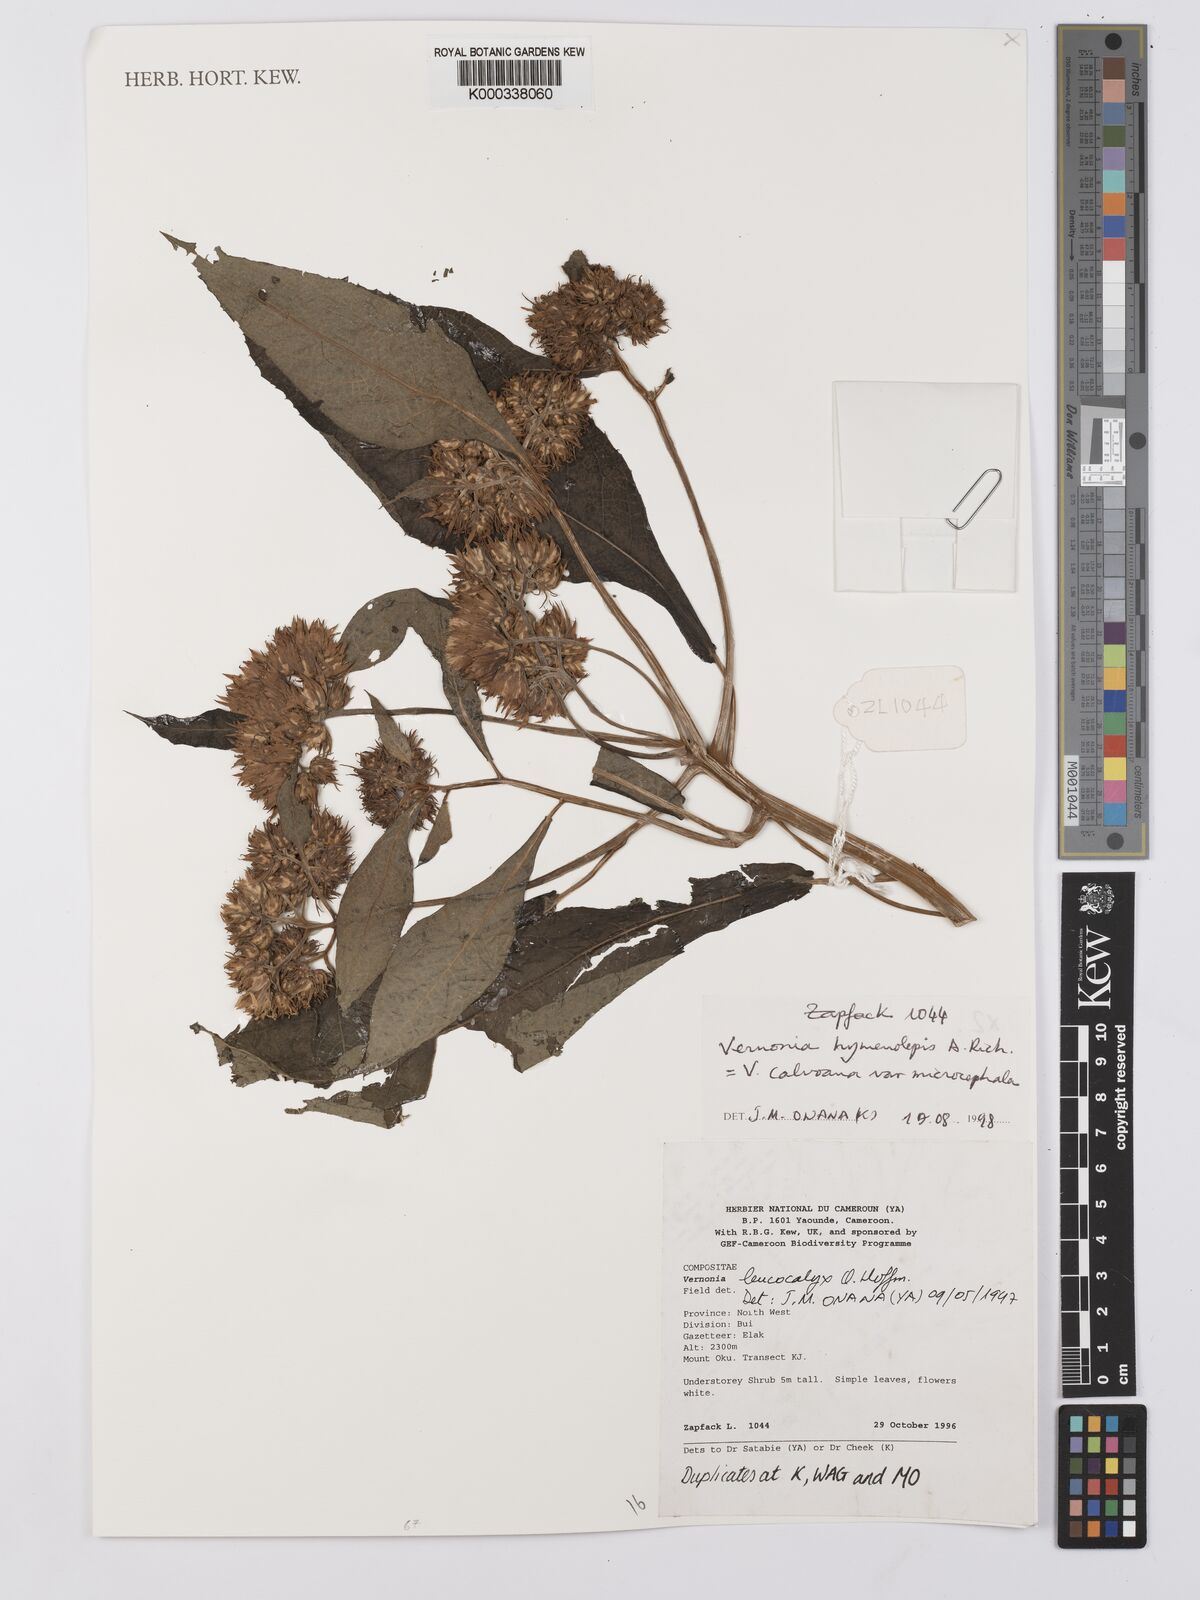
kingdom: Plantae
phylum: Tracheophyta
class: Magnoliopsida
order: Asterales
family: Asteraceae
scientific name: Asteraceae
